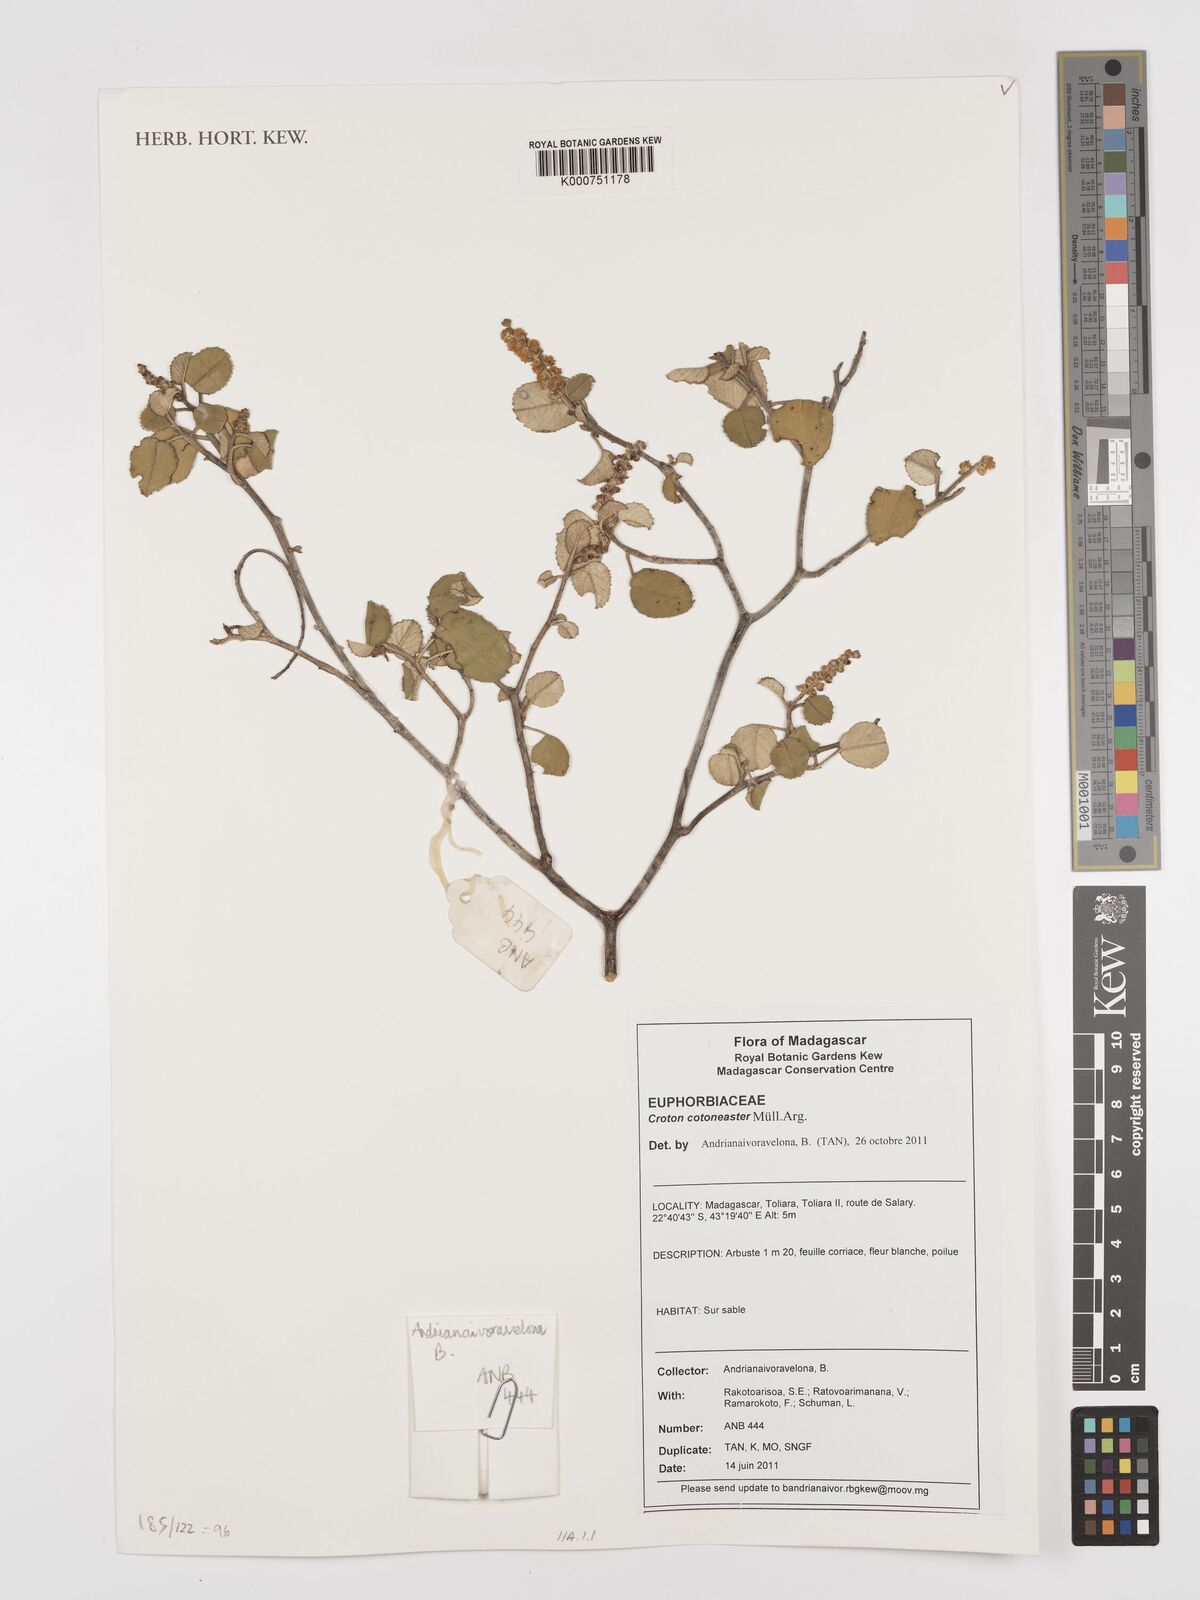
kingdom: Plantae
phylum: Tracheophyta
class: Magnoliopsida
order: Malpighiales
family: Euphorbiaceae
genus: Croton
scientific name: Croton cotoneaster
